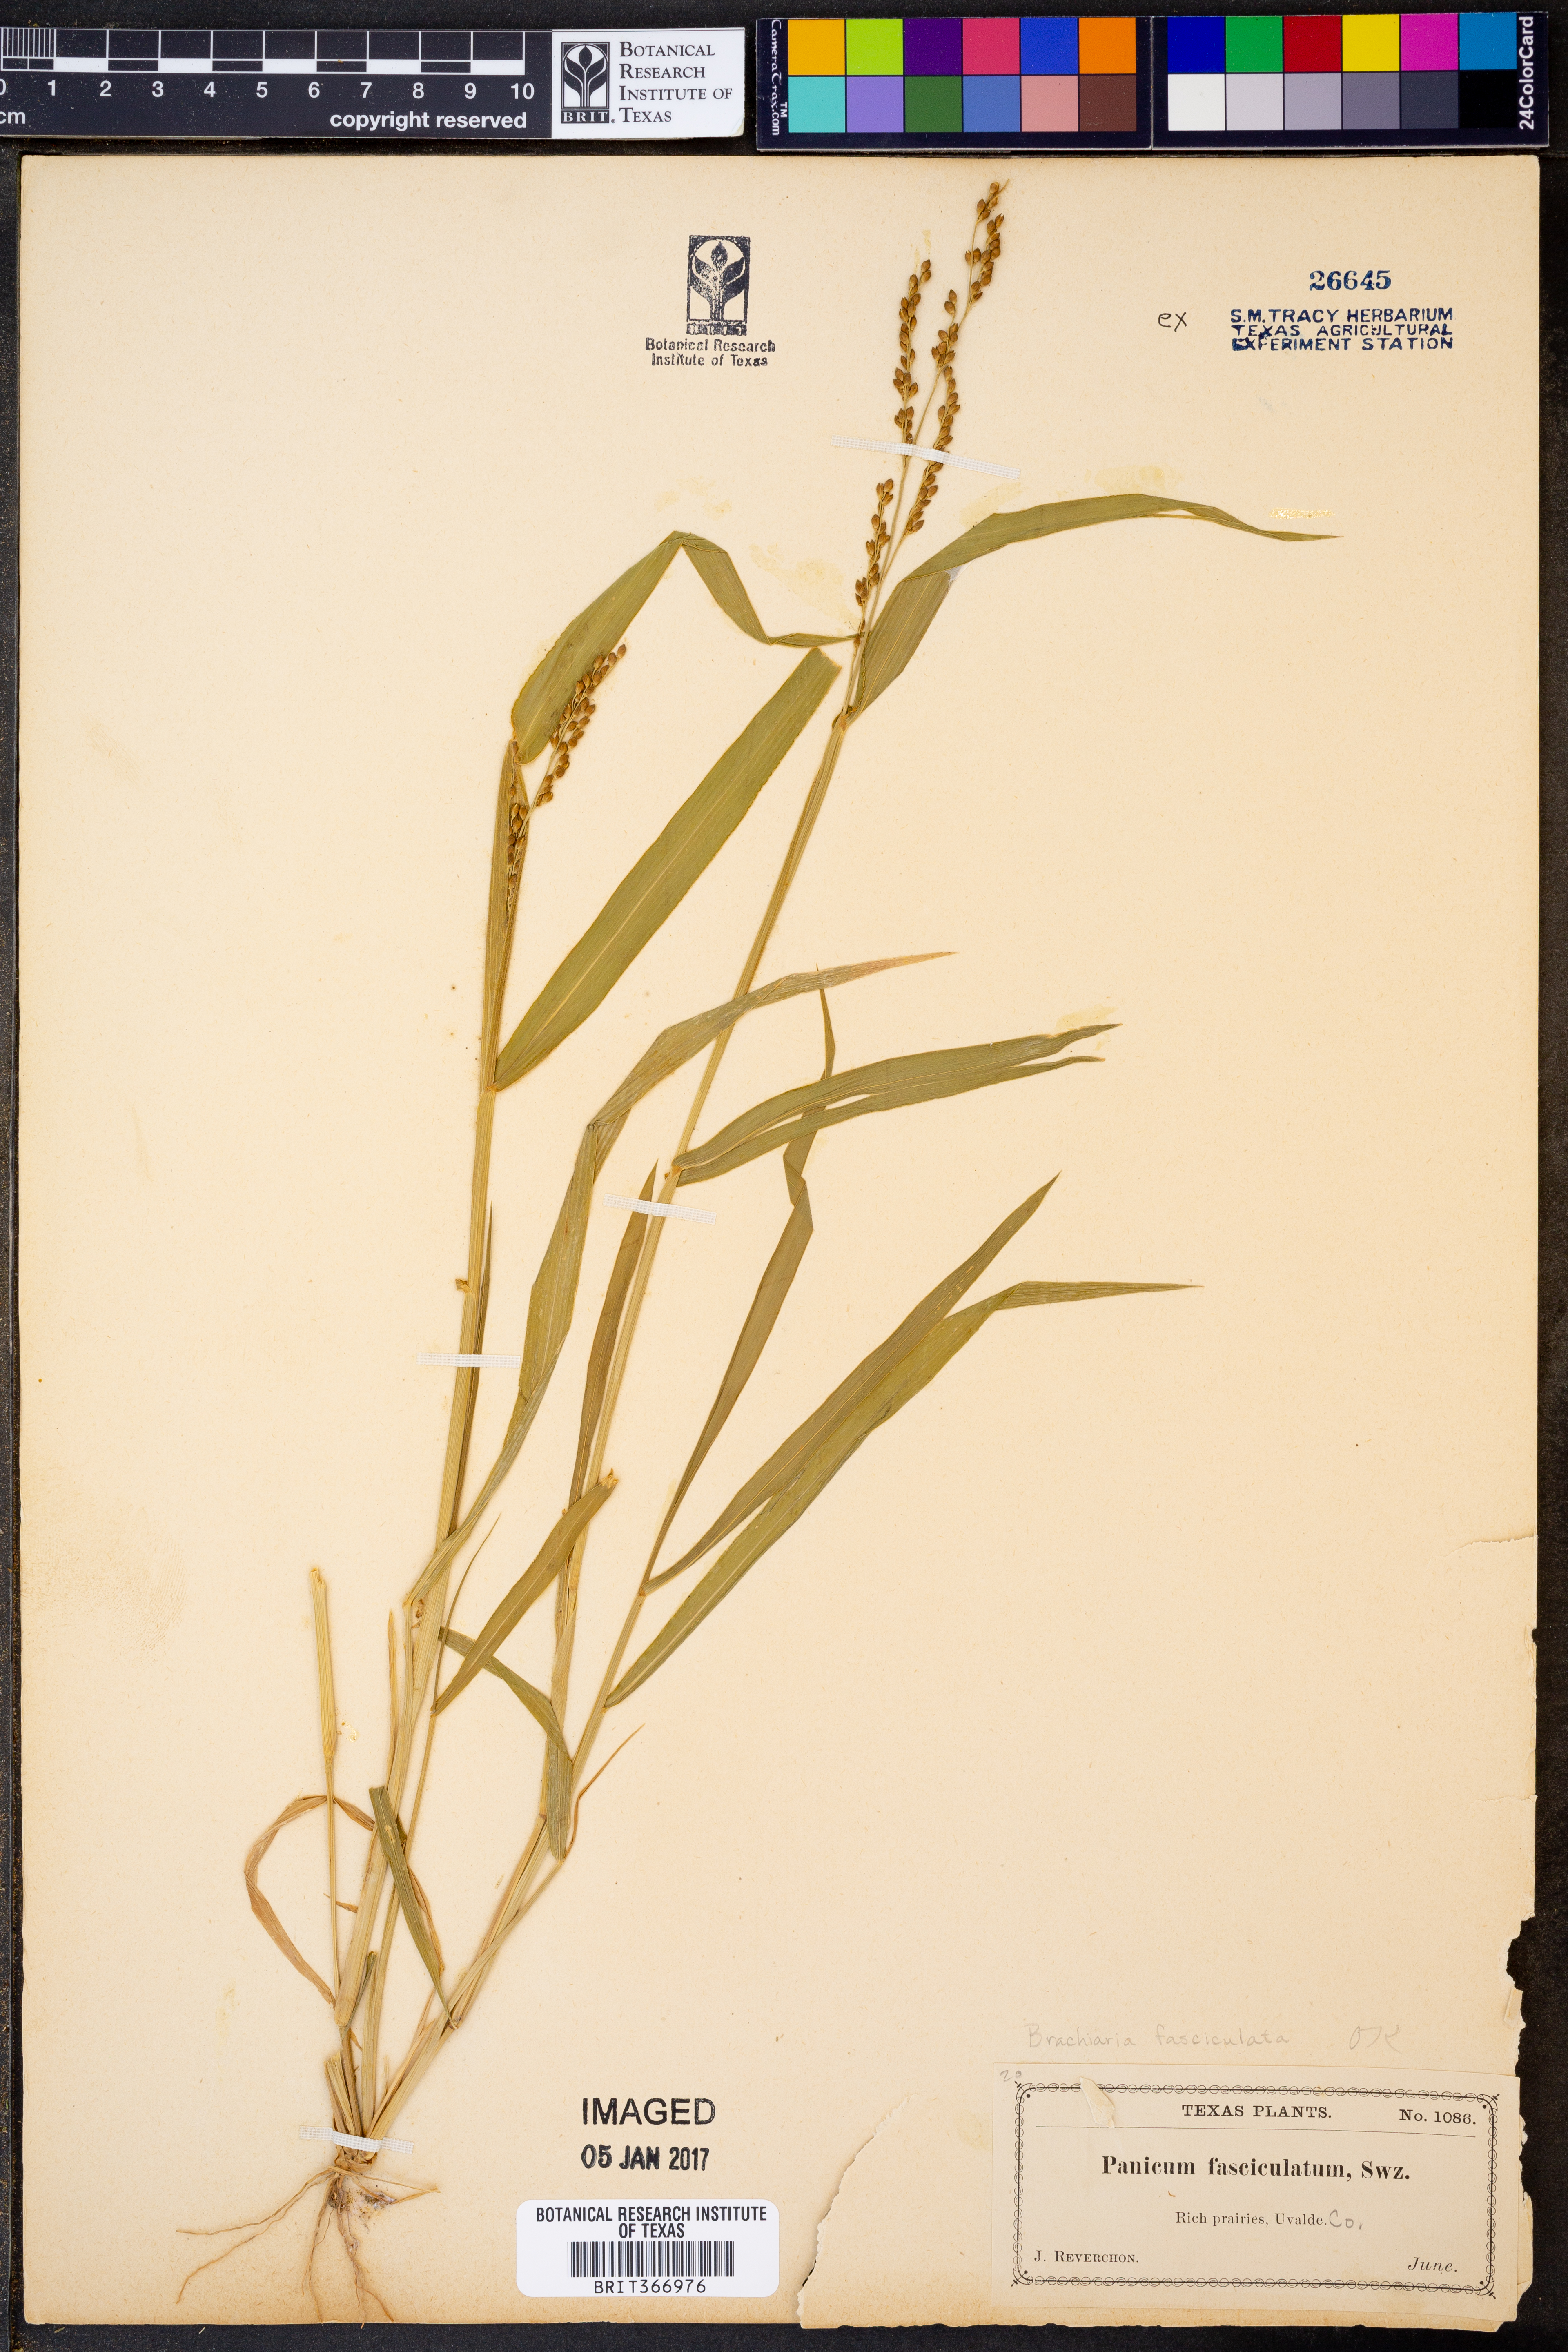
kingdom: Plantae
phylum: Tracheophyta
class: Liliopsida
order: Poales
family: Poaceae
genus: Urochloa
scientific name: Urochloa falcifera
